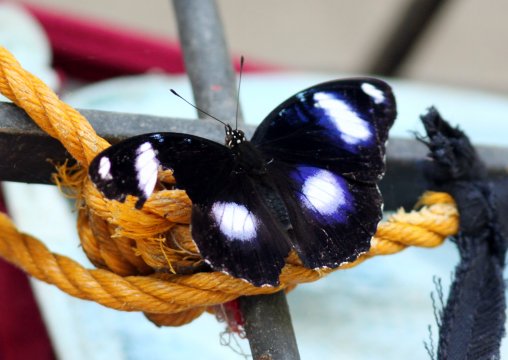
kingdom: Animalia
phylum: Arthropoda
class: Insecta
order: Lepidoptera
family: Nymphalidae
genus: Hypolimnas
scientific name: Hypolimnas bolina
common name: Great Eggfly
